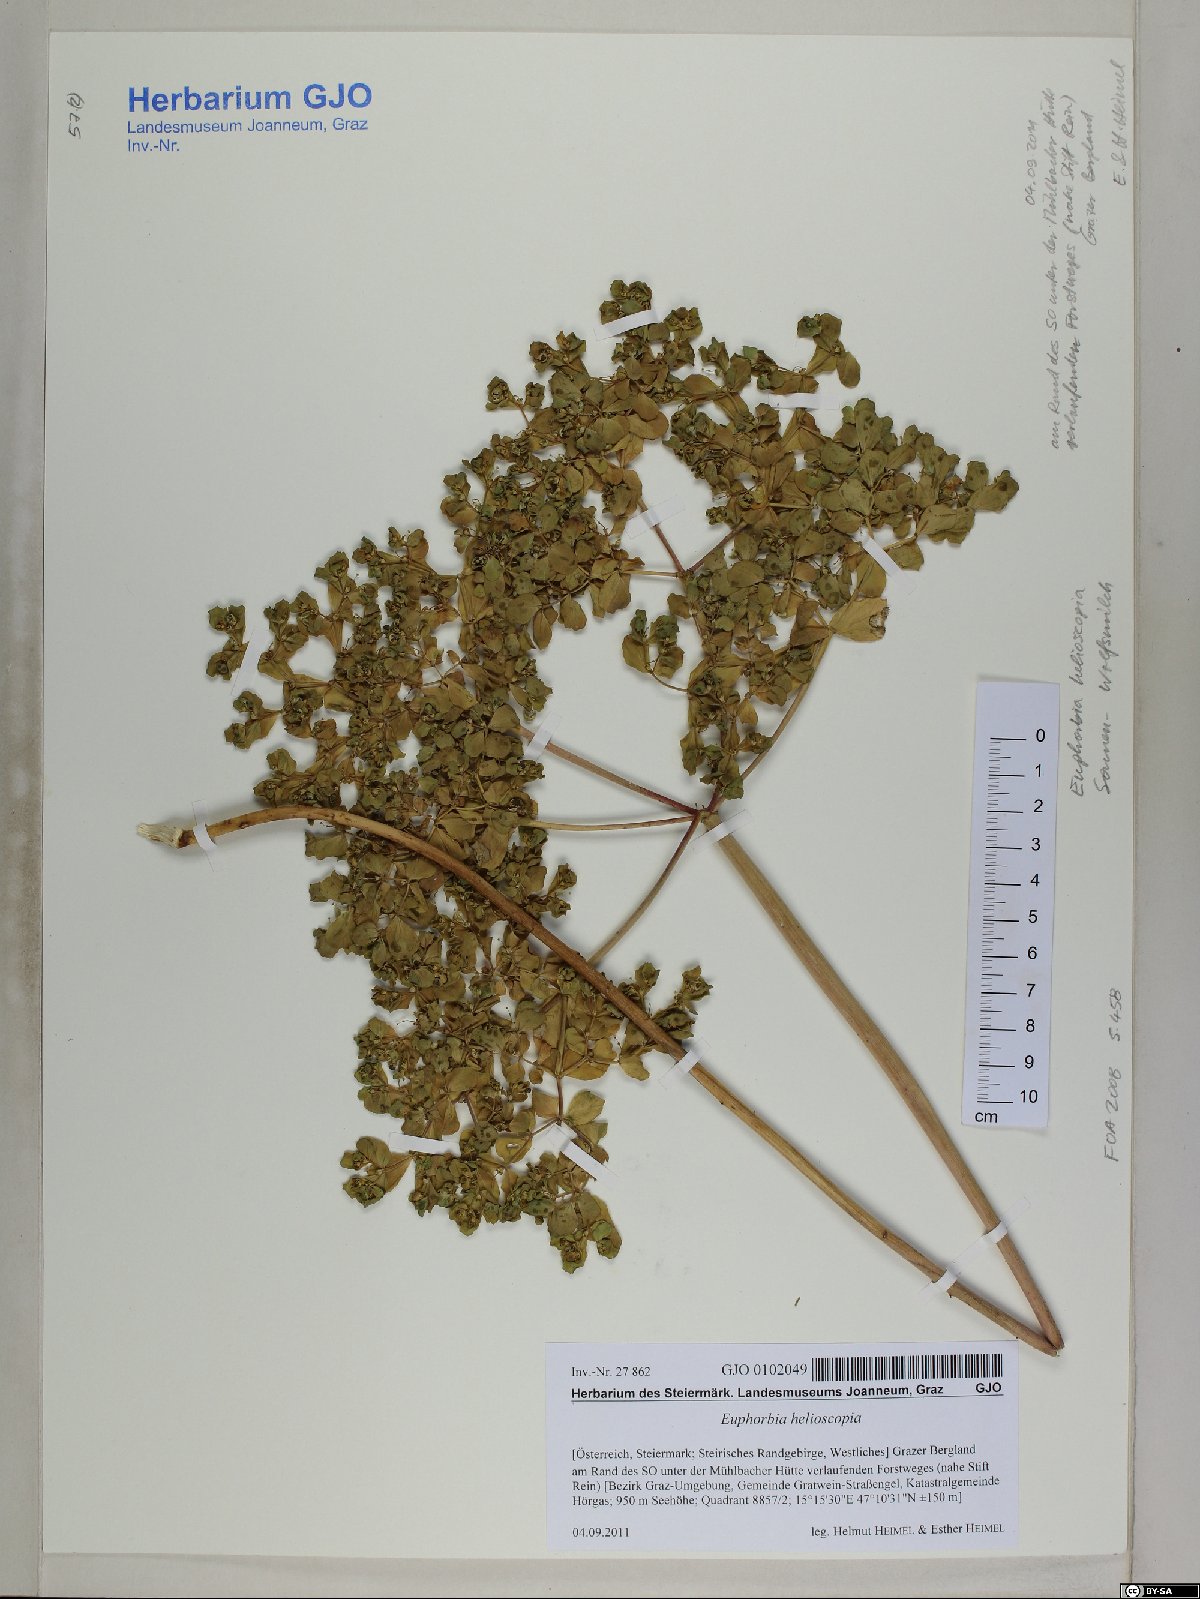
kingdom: Plantae
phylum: Tracheophyta
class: Magnoliopsida
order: Malpighiales
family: Euphorbiaceae
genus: Euphorbia
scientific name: Euphorbia helioscopia
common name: Sun spurge
